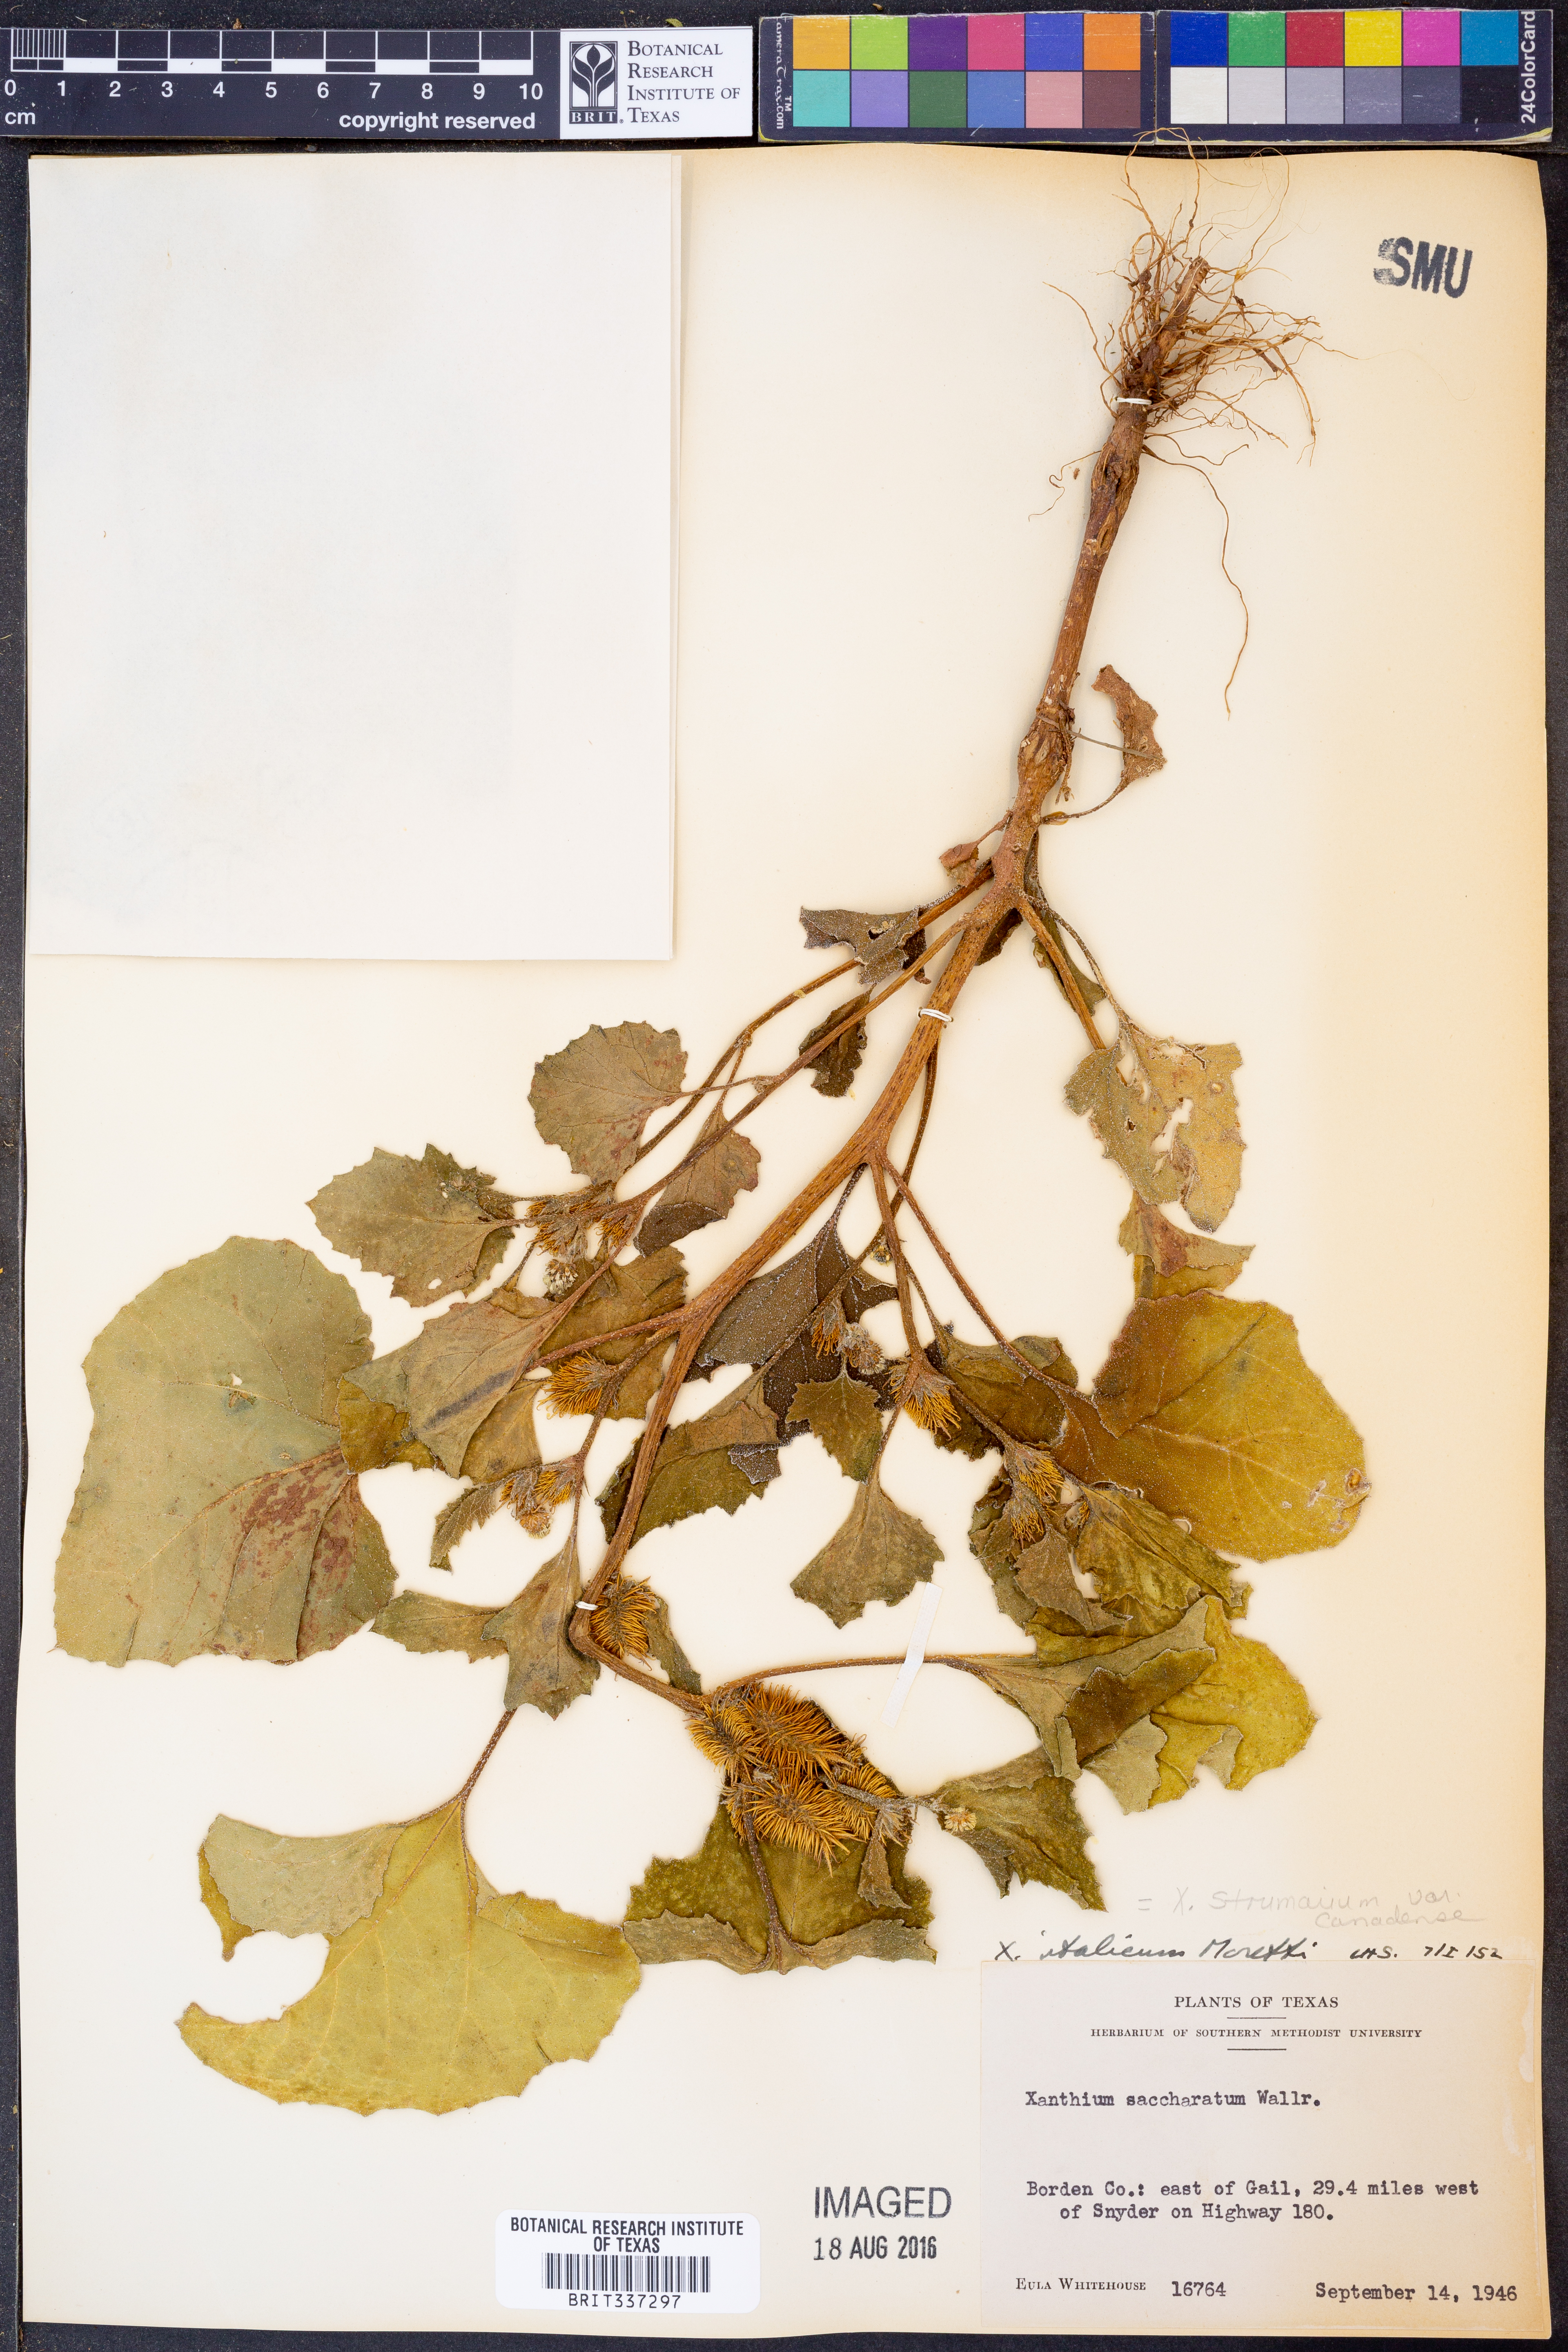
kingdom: Plantae
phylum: Tracheophyta
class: Magnoliopsida
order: Asterales
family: Asteraceae
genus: Xanthium
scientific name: Xanthium orientale
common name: Californian burr
